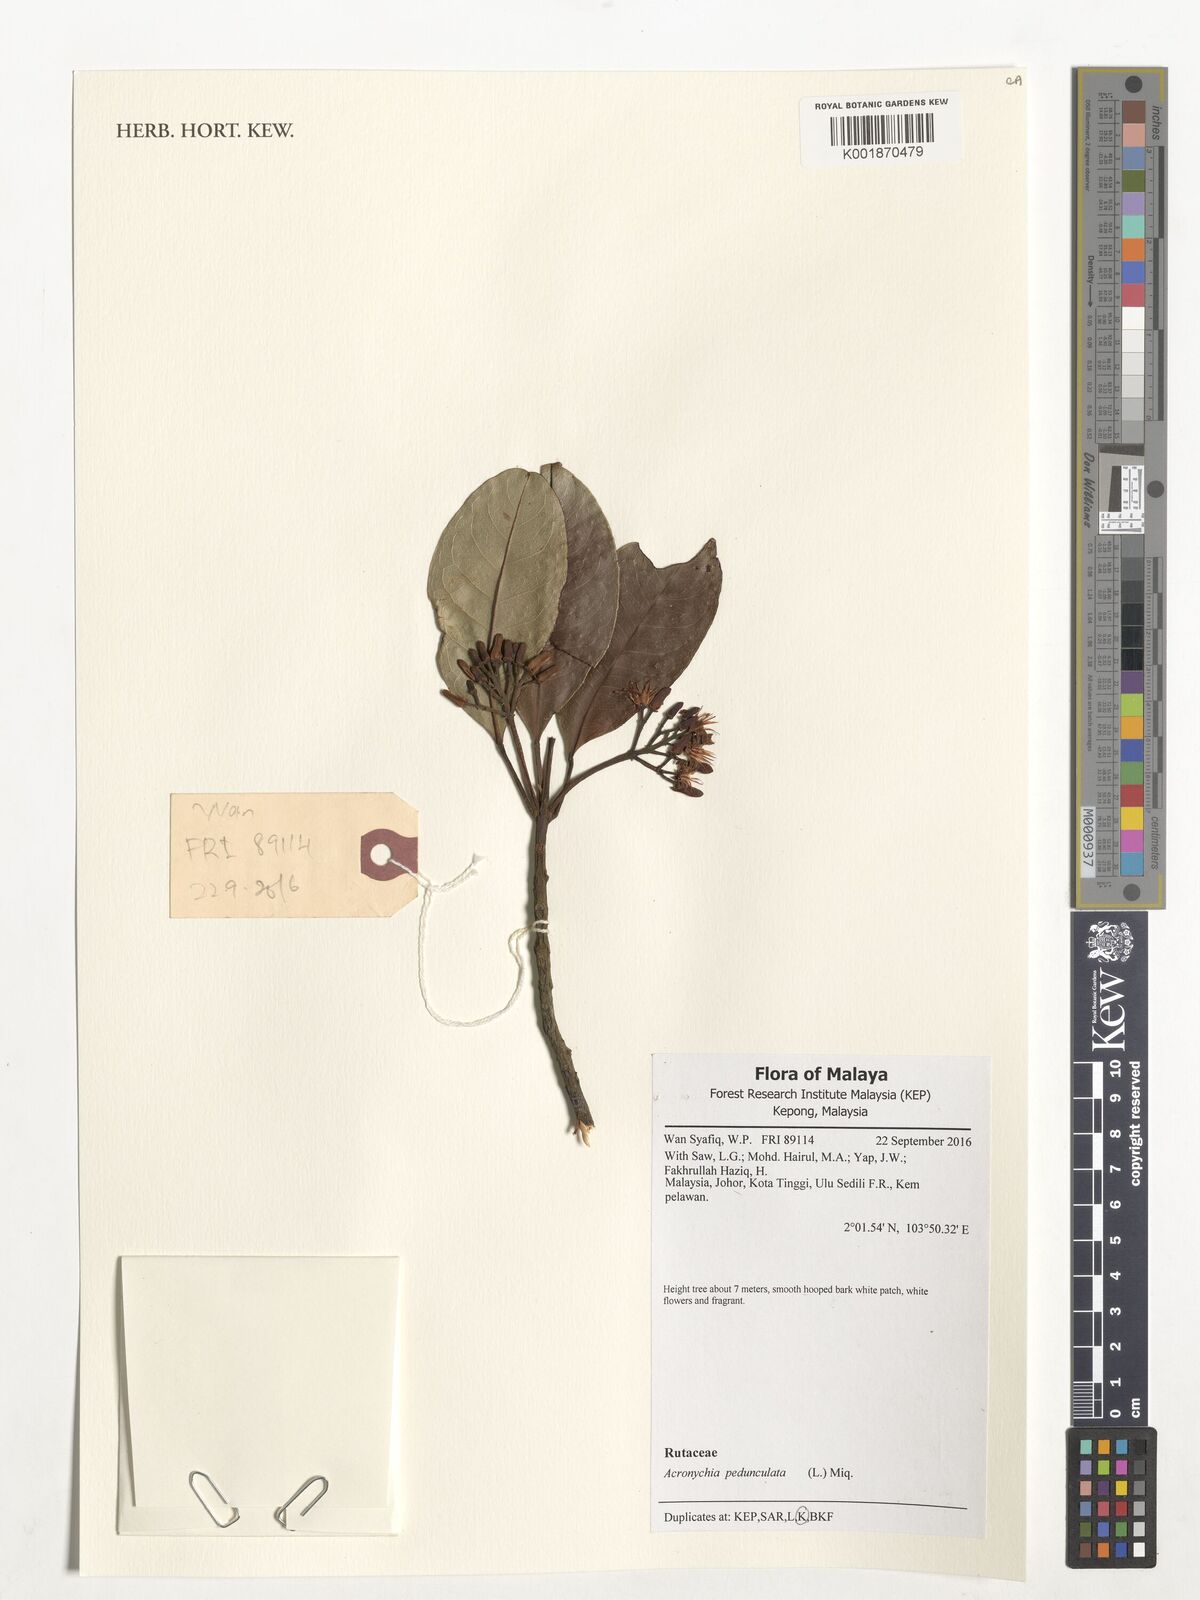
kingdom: Plantae
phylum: Tracheophyta
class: Magnoliopsida
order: Sapindales
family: Rutaceae
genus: Acronychia
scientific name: Acronychia pedunculata
